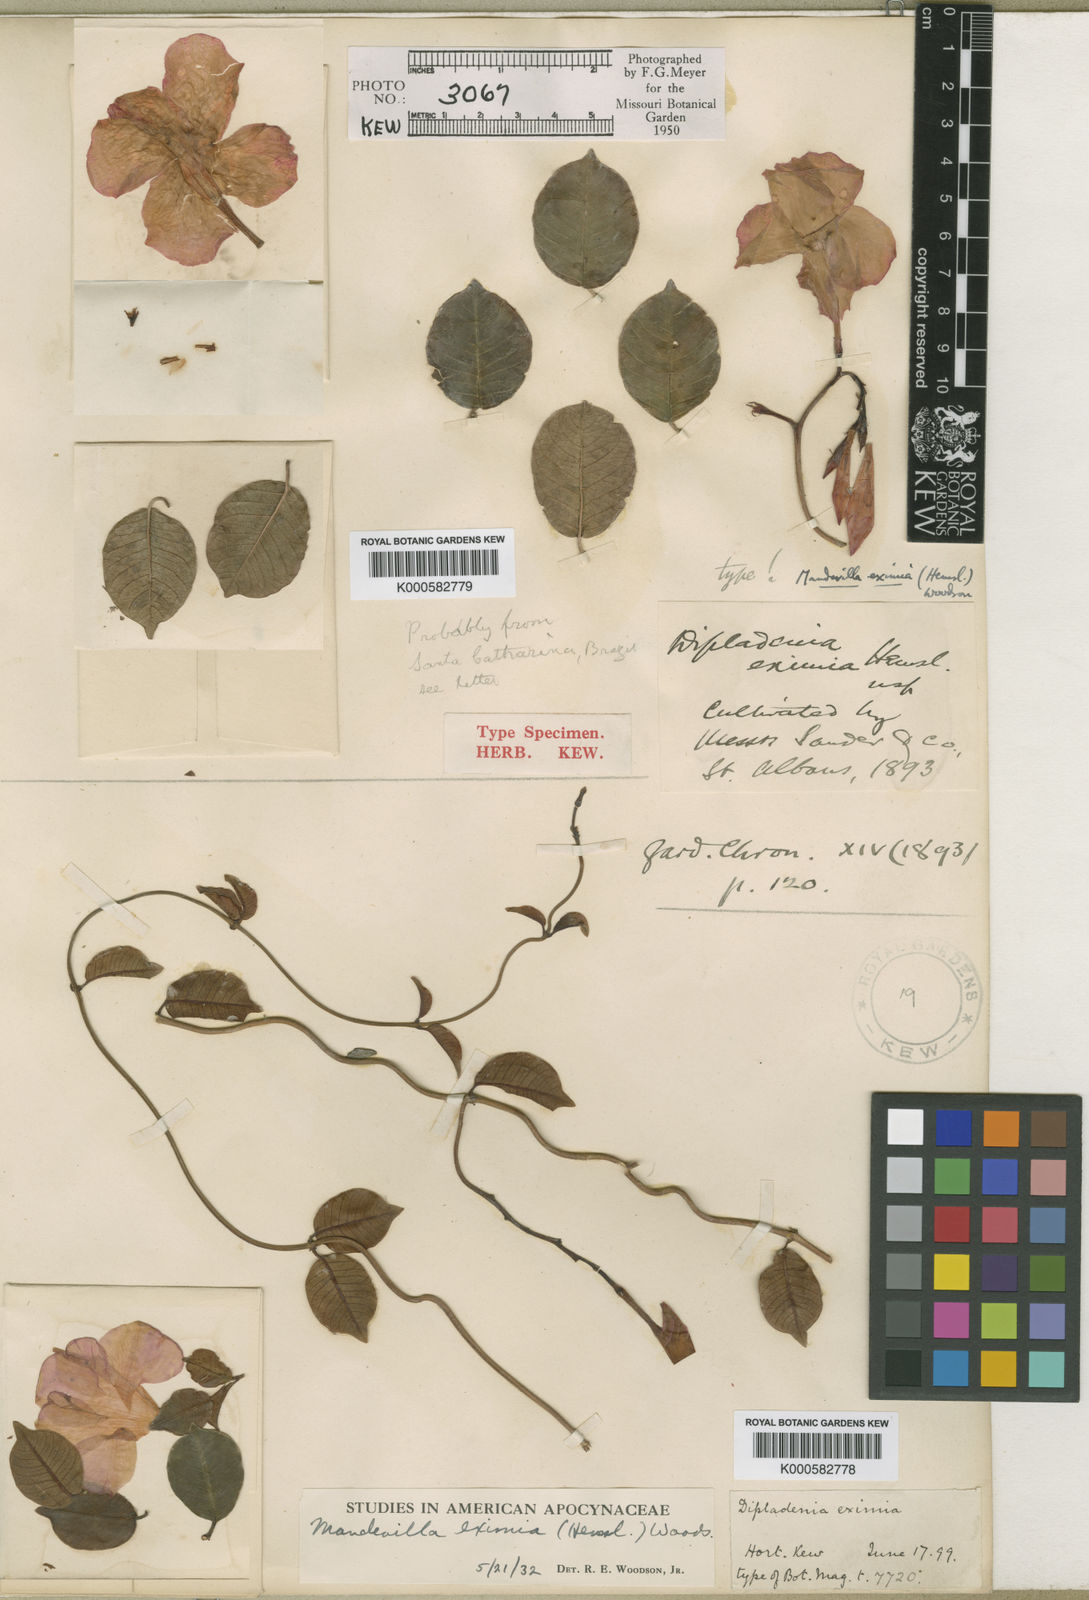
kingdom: Plantae
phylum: Tracheophyta
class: Magnoliopsida
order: Gentianales
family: Apocynaceae
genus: Mandevilla
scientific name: Mandevilla eximia
